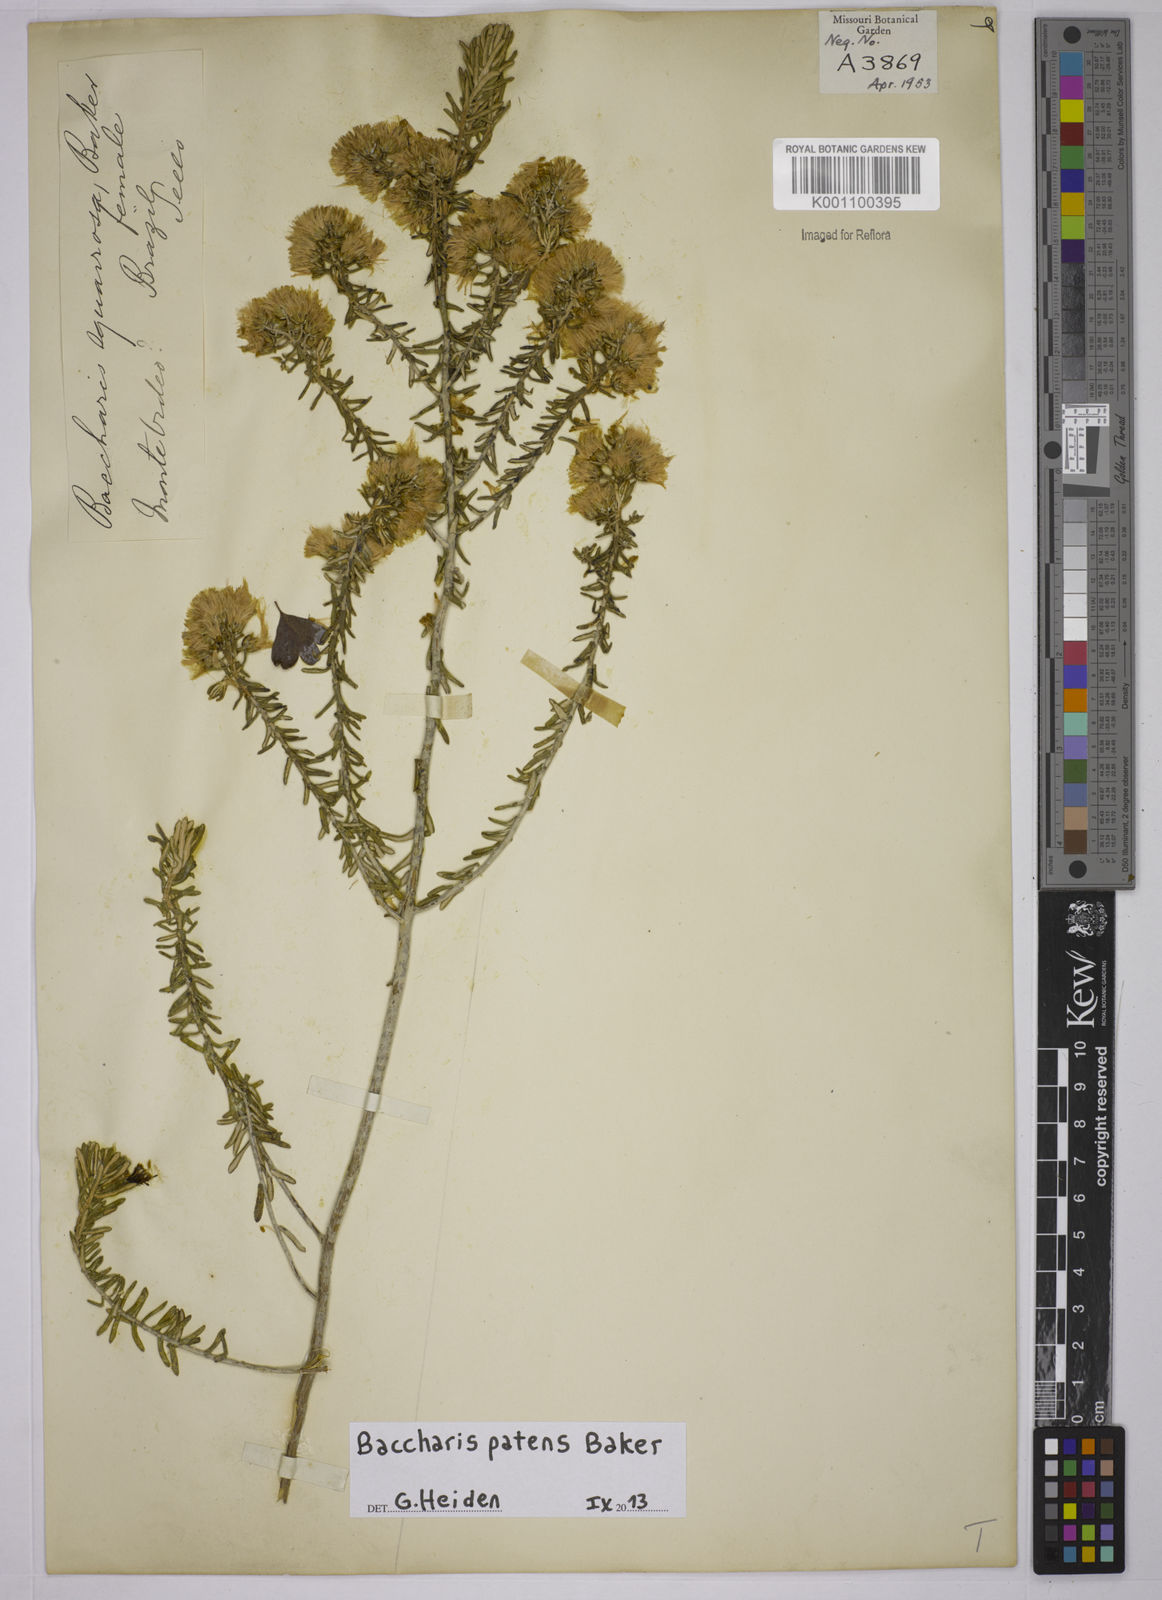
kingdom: Plantae
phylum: Tracheophyta
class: Magnoliopsida
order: Asterales
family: Asteraceae
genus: Baccharis
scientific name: Baccharis patens
